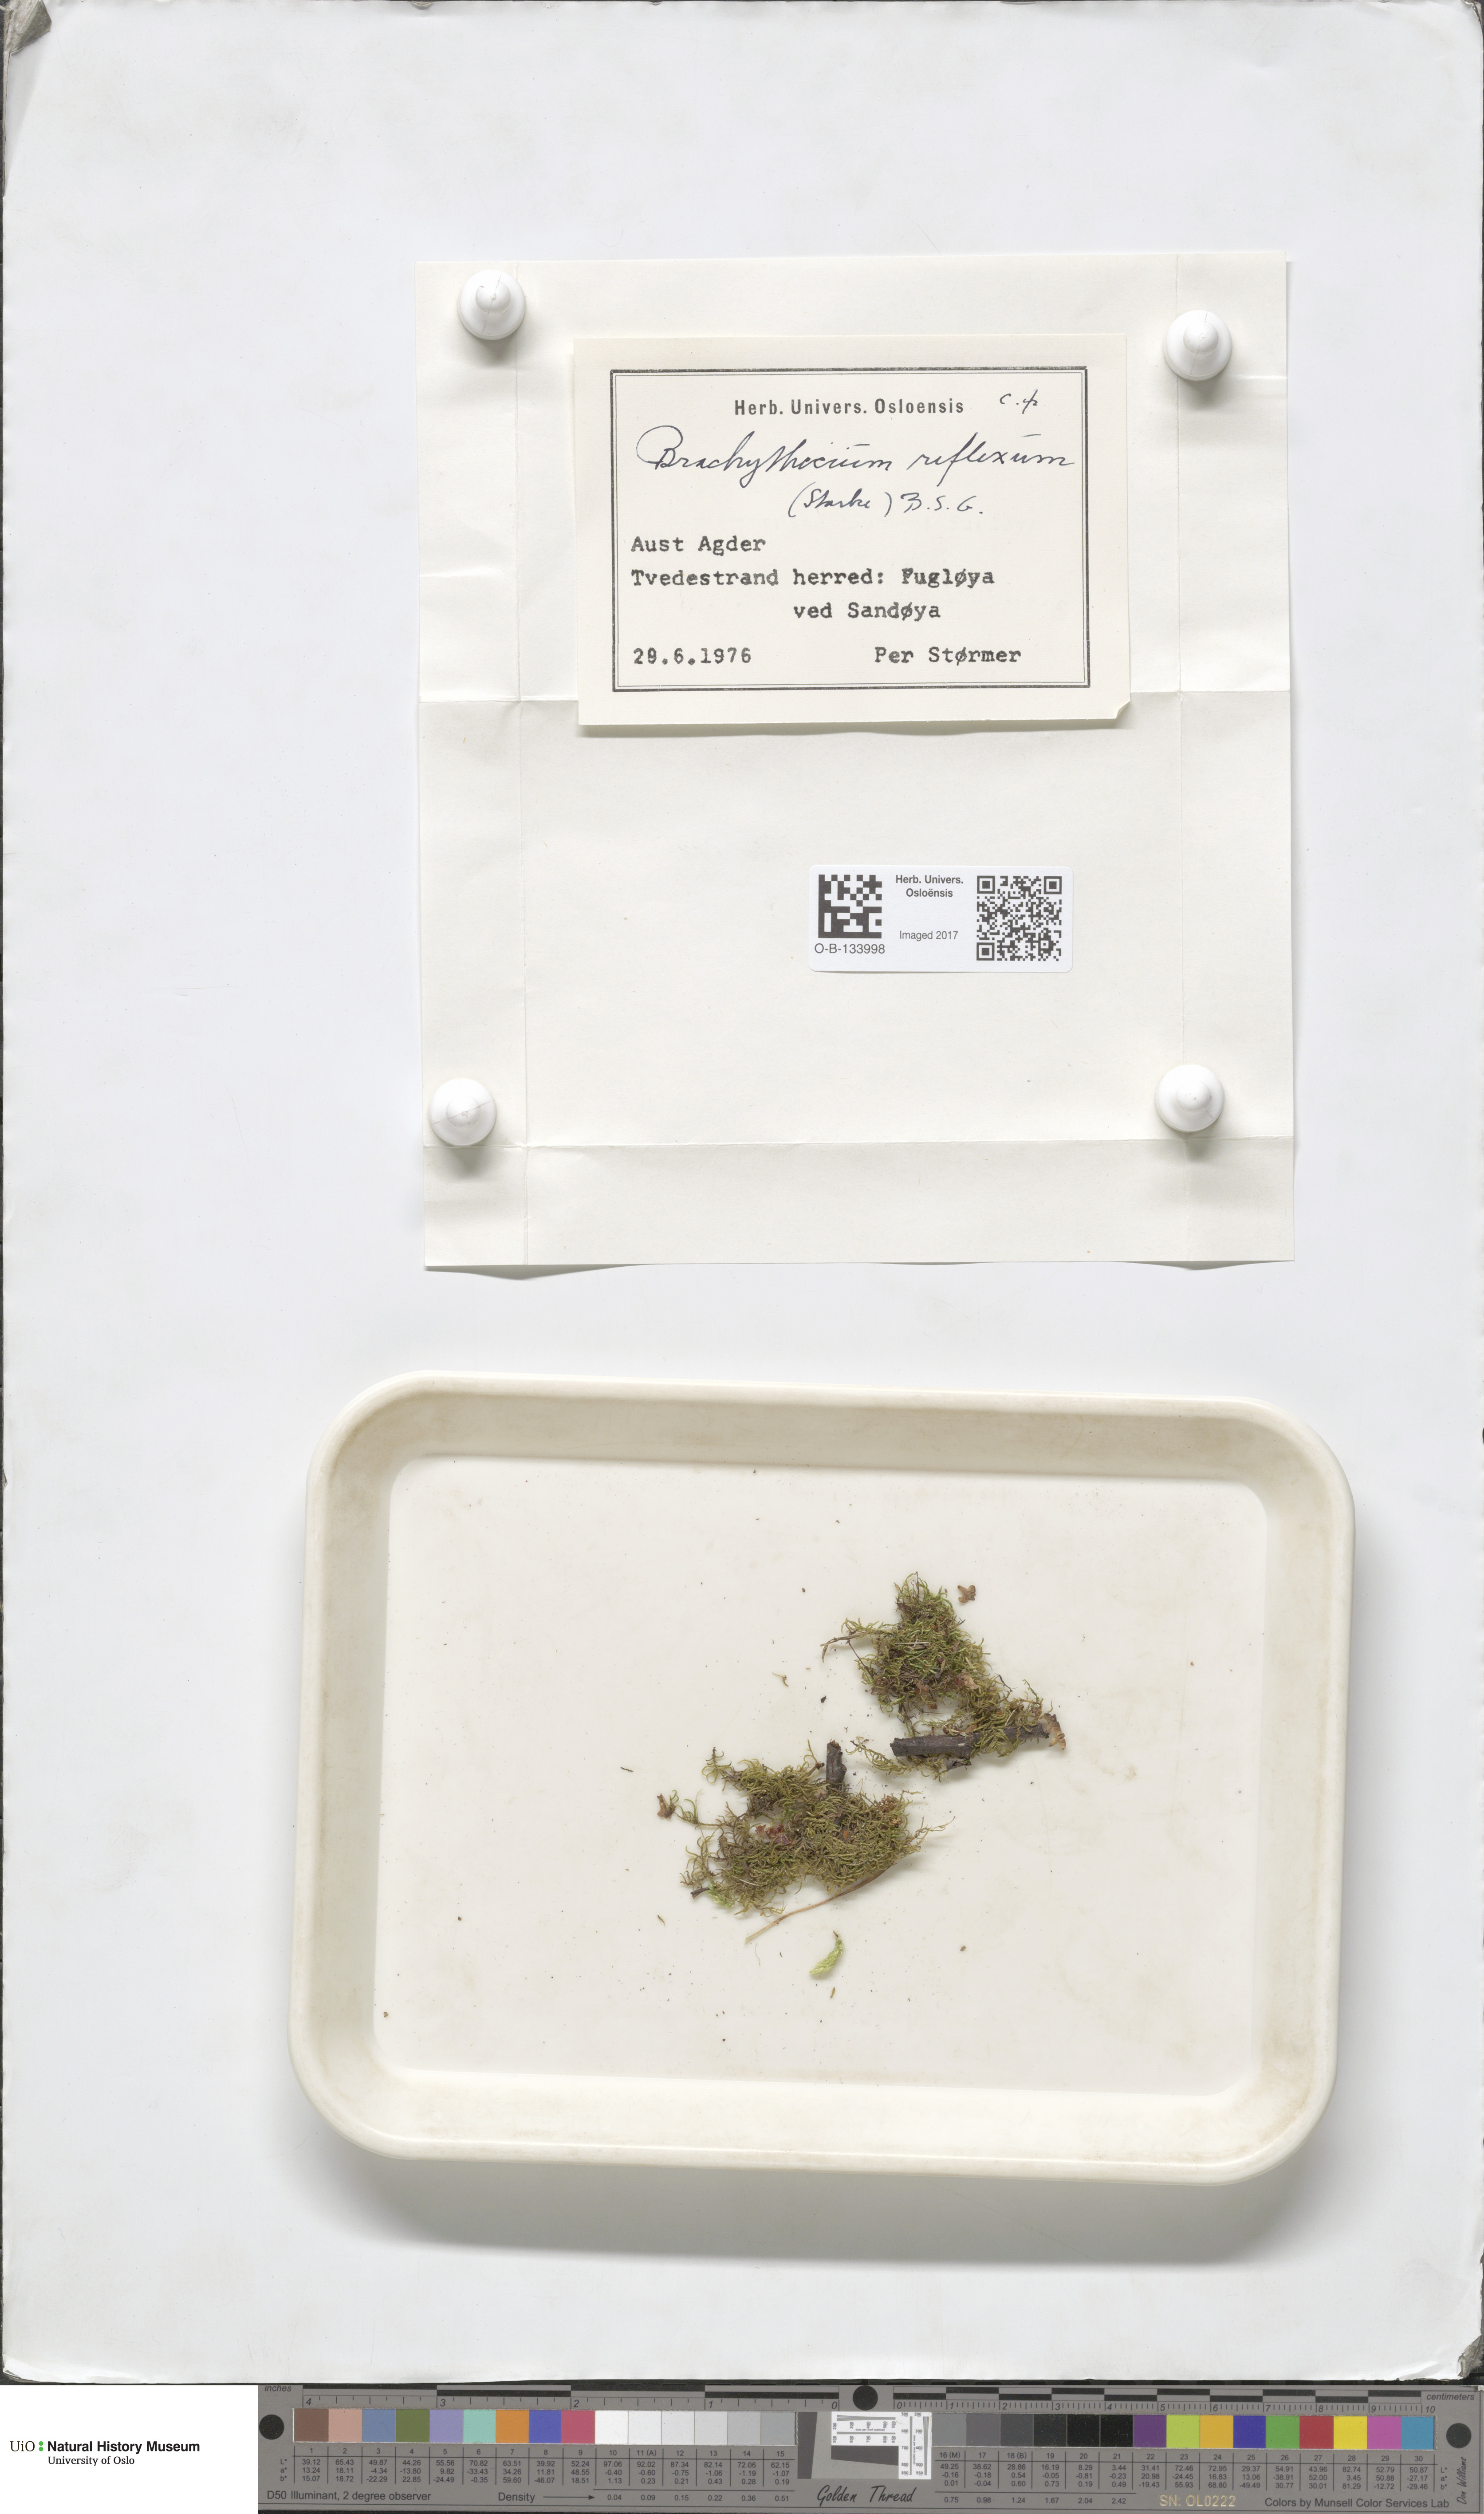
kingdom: Plantae
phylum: Bryophyta
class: Bryopsida
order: Hypnales
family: Brachytheciaceae
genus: Sciuro-hypnum
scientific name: Sciuro-hypnum reflexum
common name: Reflexed feather-moss
